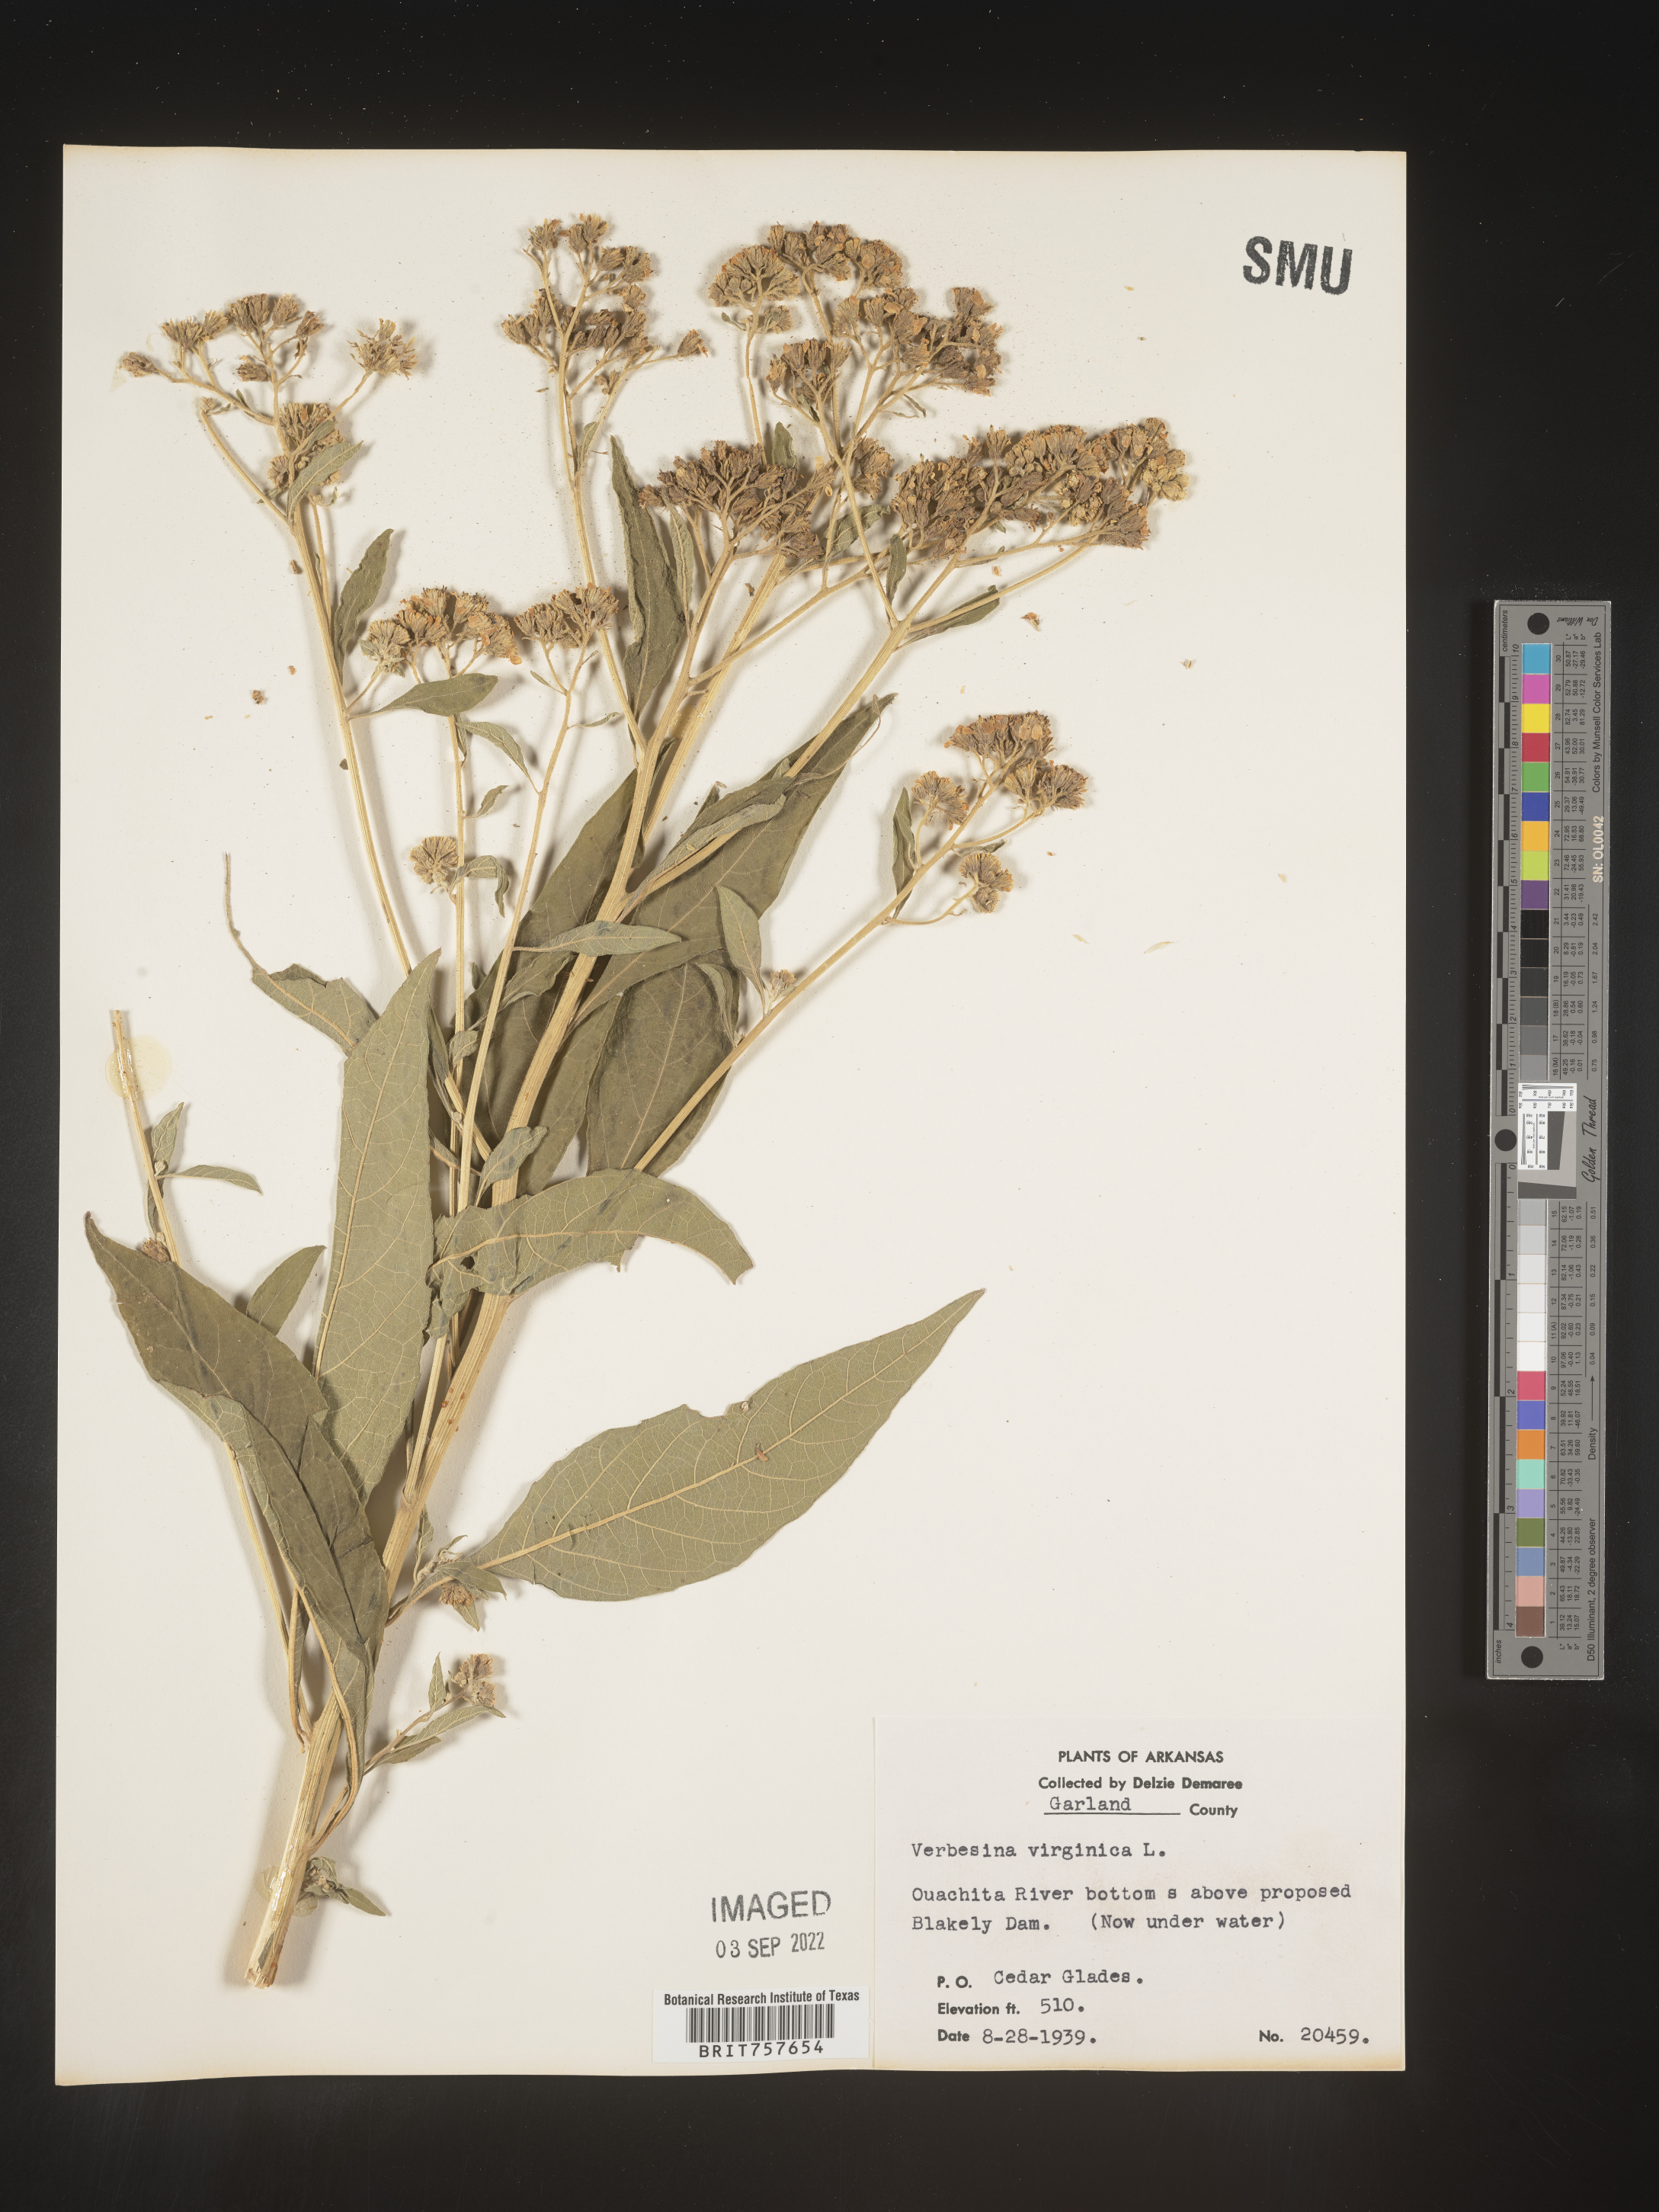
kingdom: Plantae
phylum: Tracheophyta
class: Magnoliopsida
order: Asterales
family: Asteraceae
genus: Verbesina
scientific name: Verbesina virginica
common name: Frostweed
